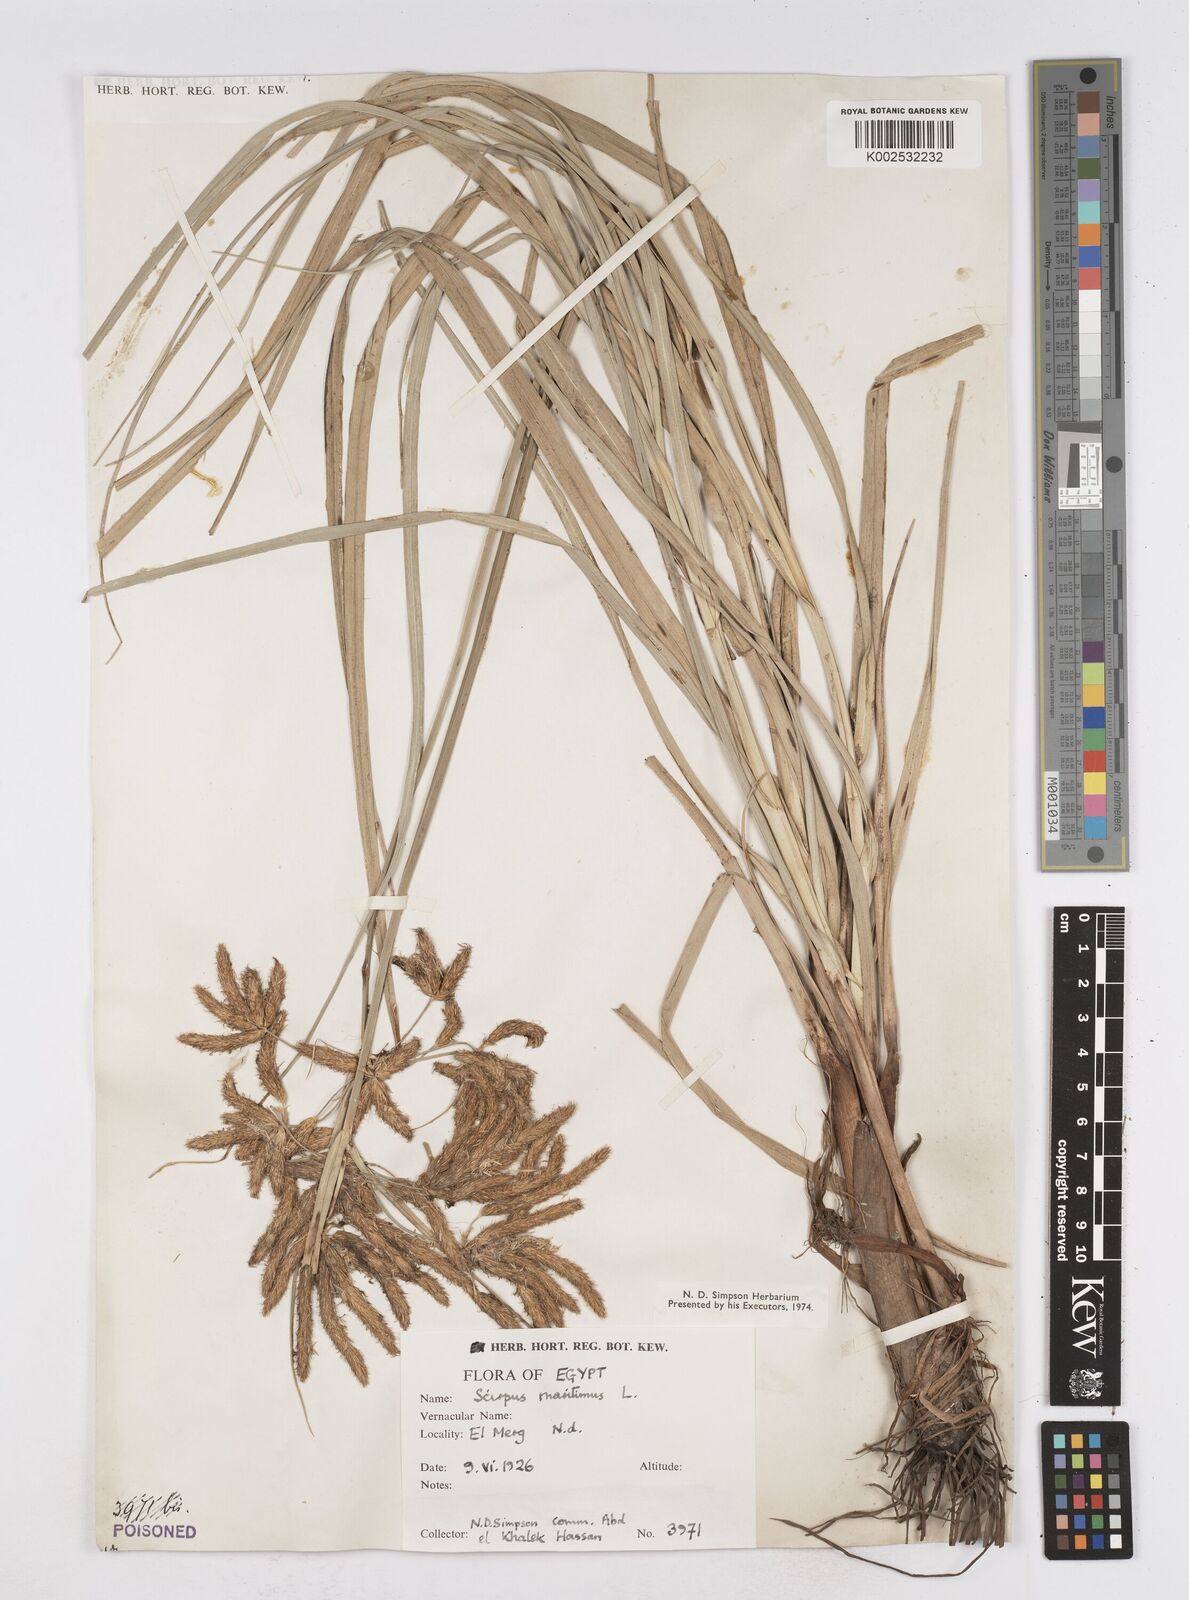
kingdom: Plantae
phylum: Tracheophyta
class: Liliopsida
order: Poales
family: Cyperaceae
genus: Bolboschoenus
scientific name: Bolboschoenus maritimus
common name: Sea club-rush
